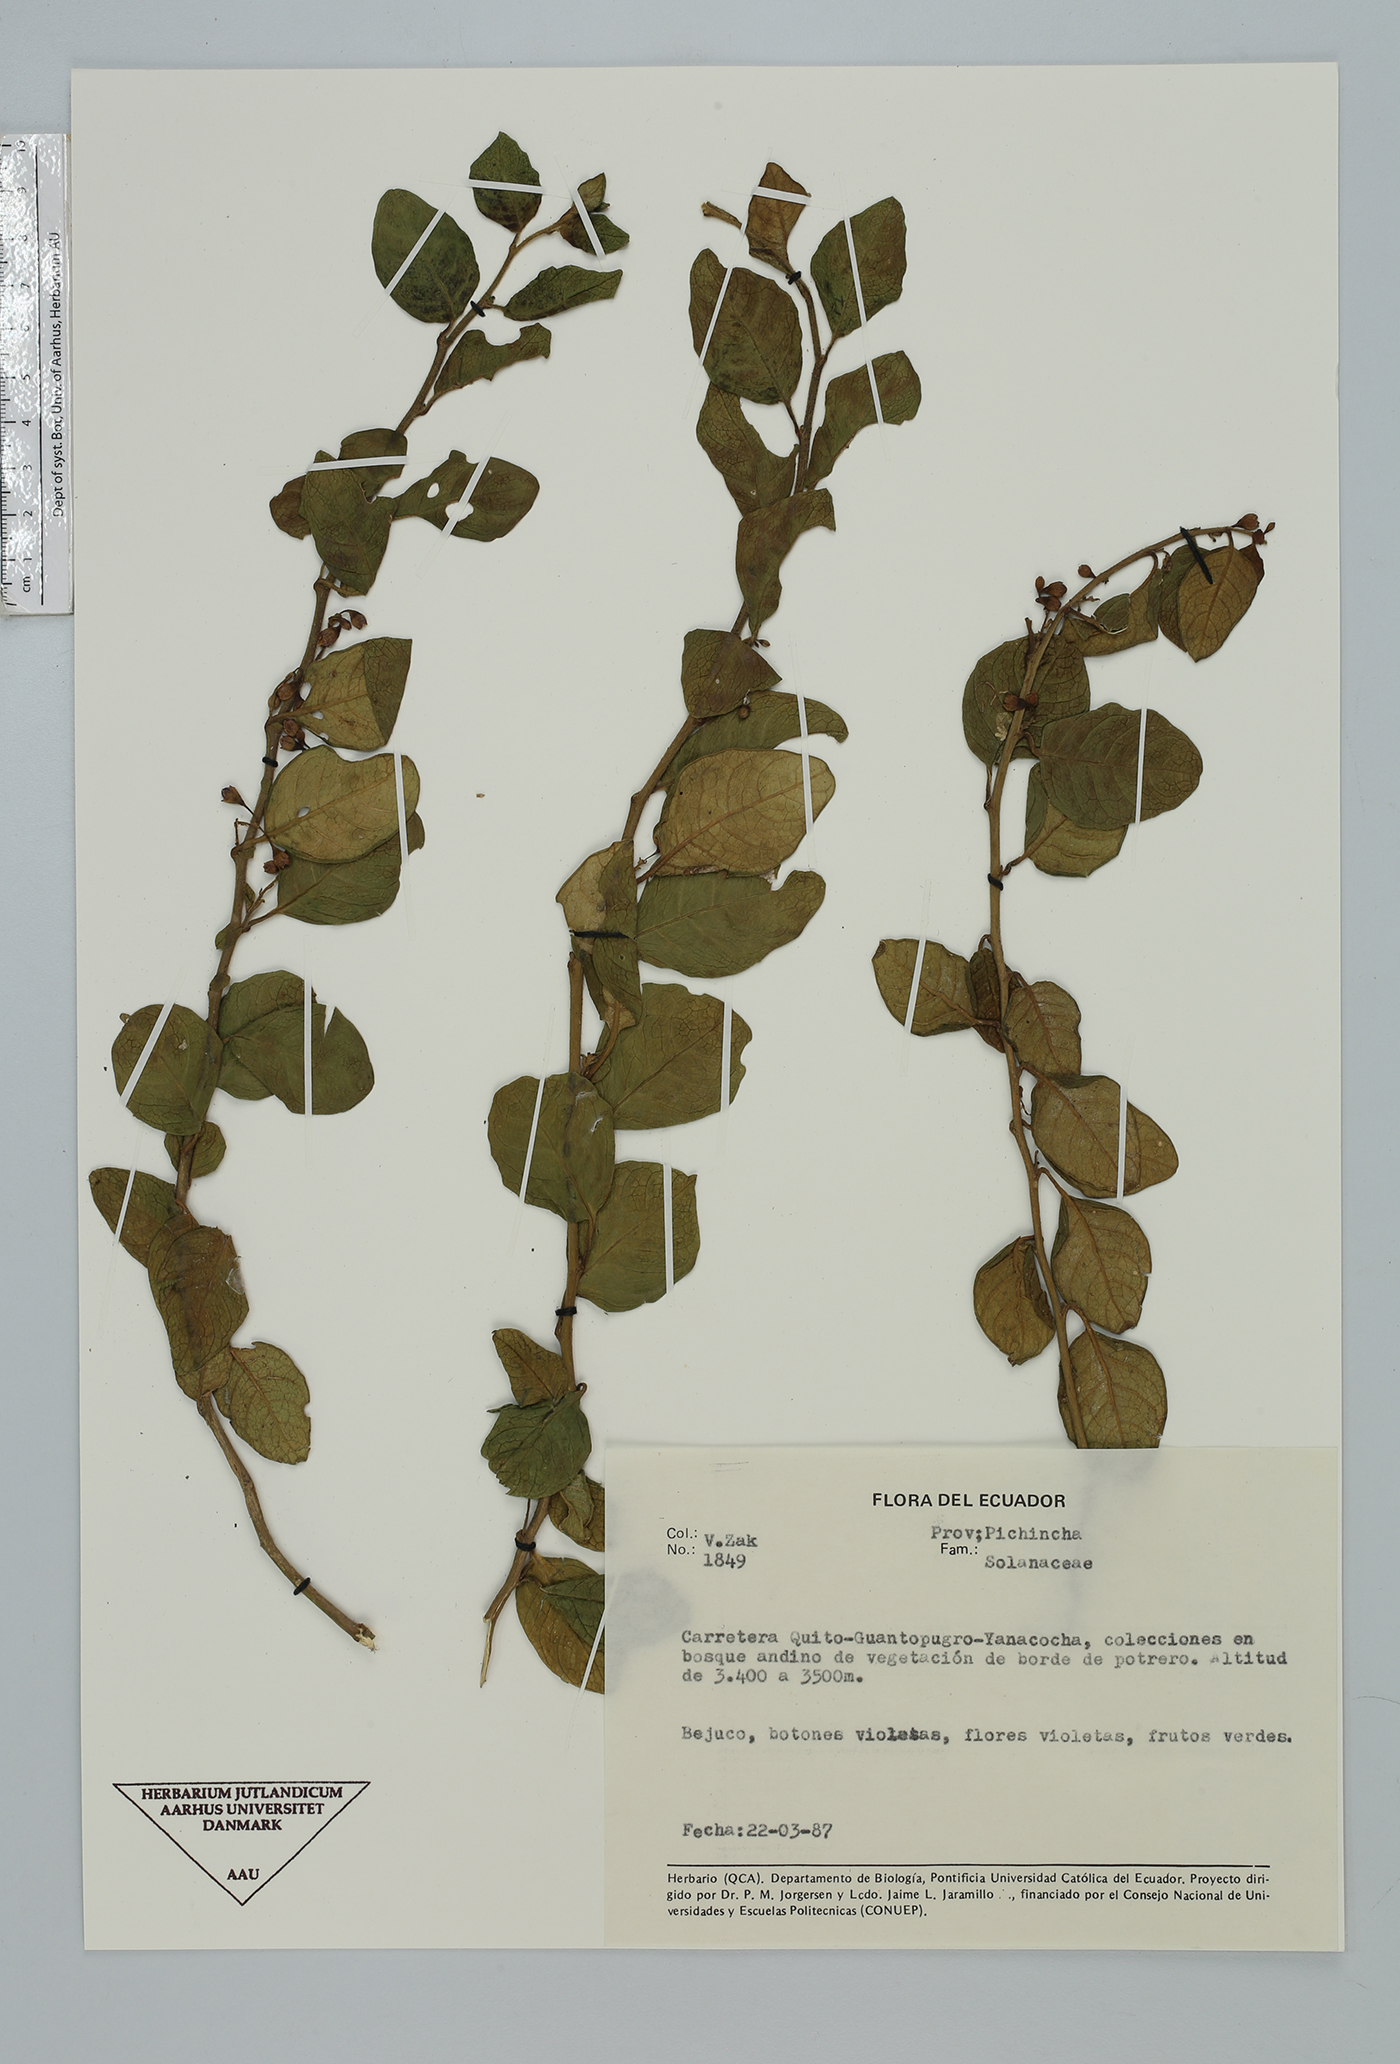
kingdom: Plantae
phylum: Tracheophyta
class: Magnoliopsida
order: Solanales
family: Solanaceae
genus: Solanum
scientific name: Solanum
